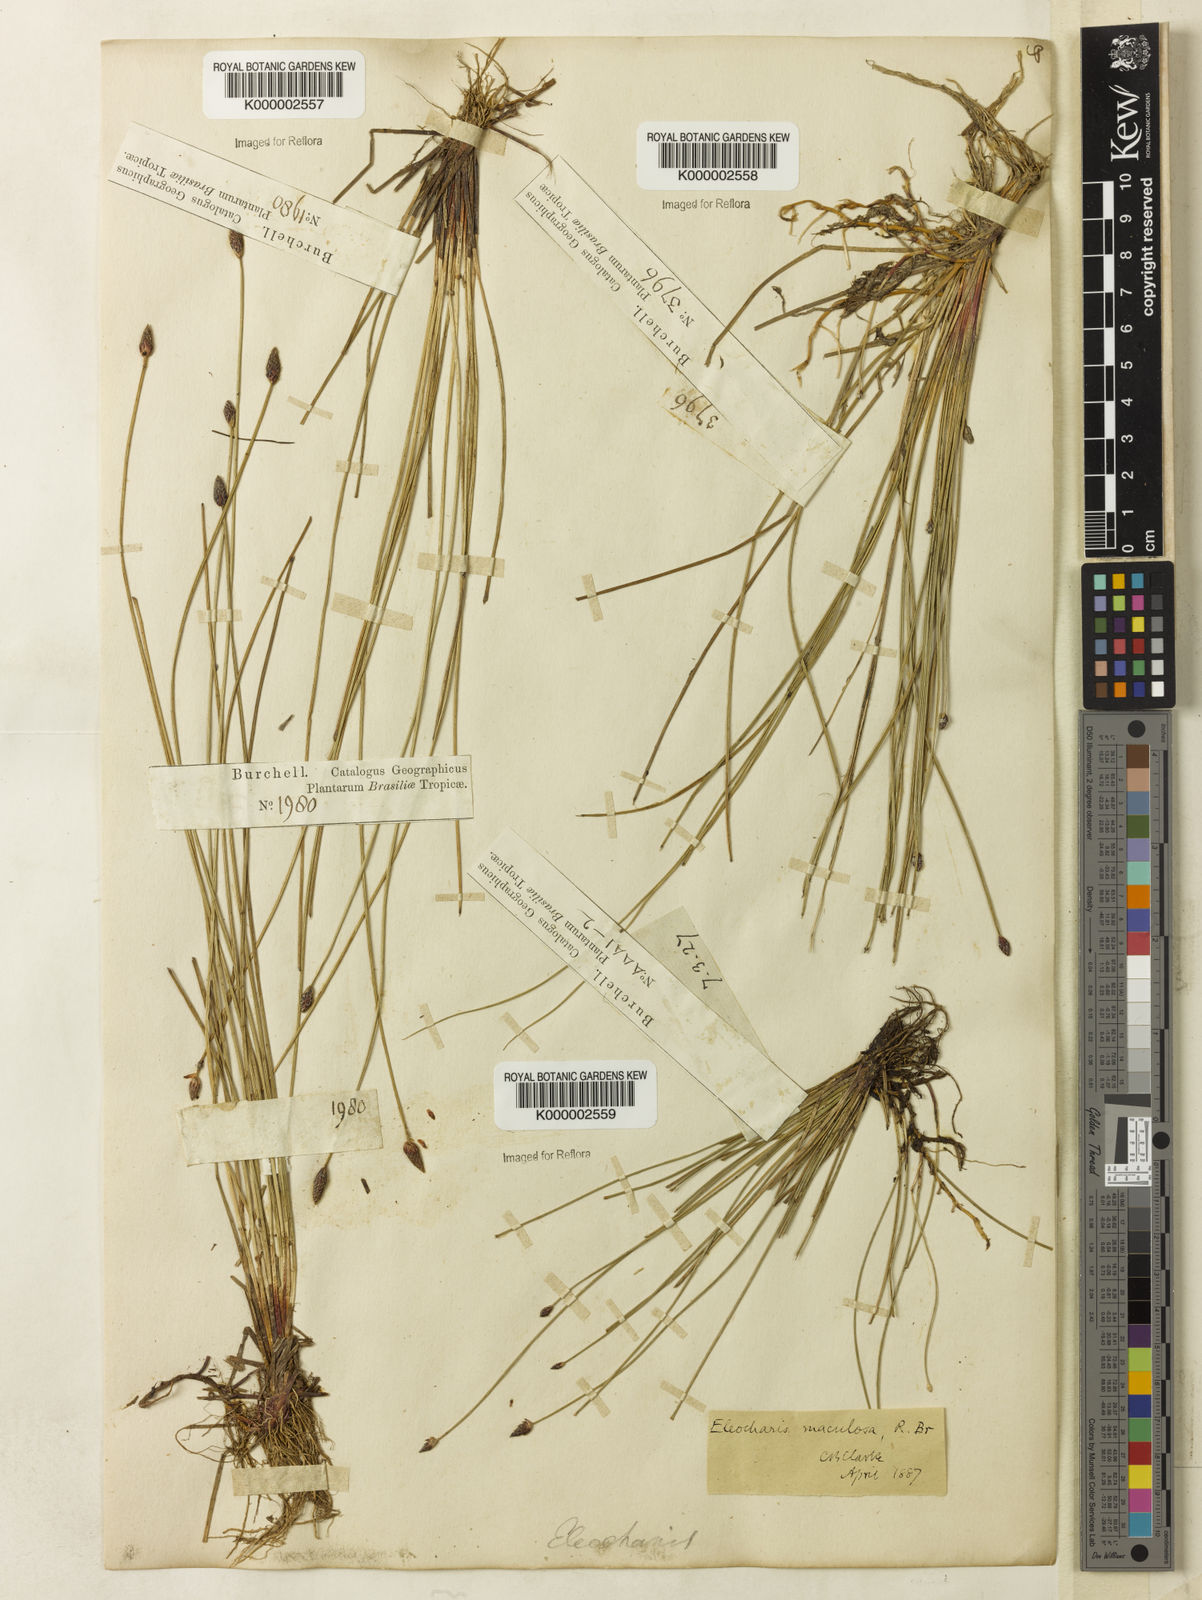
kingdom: Plantae
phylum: Tracheophyta
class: Liliopsida
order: Poales
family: Cyperaceae
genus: Eleocharis
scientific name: Eleocharis maculosa
